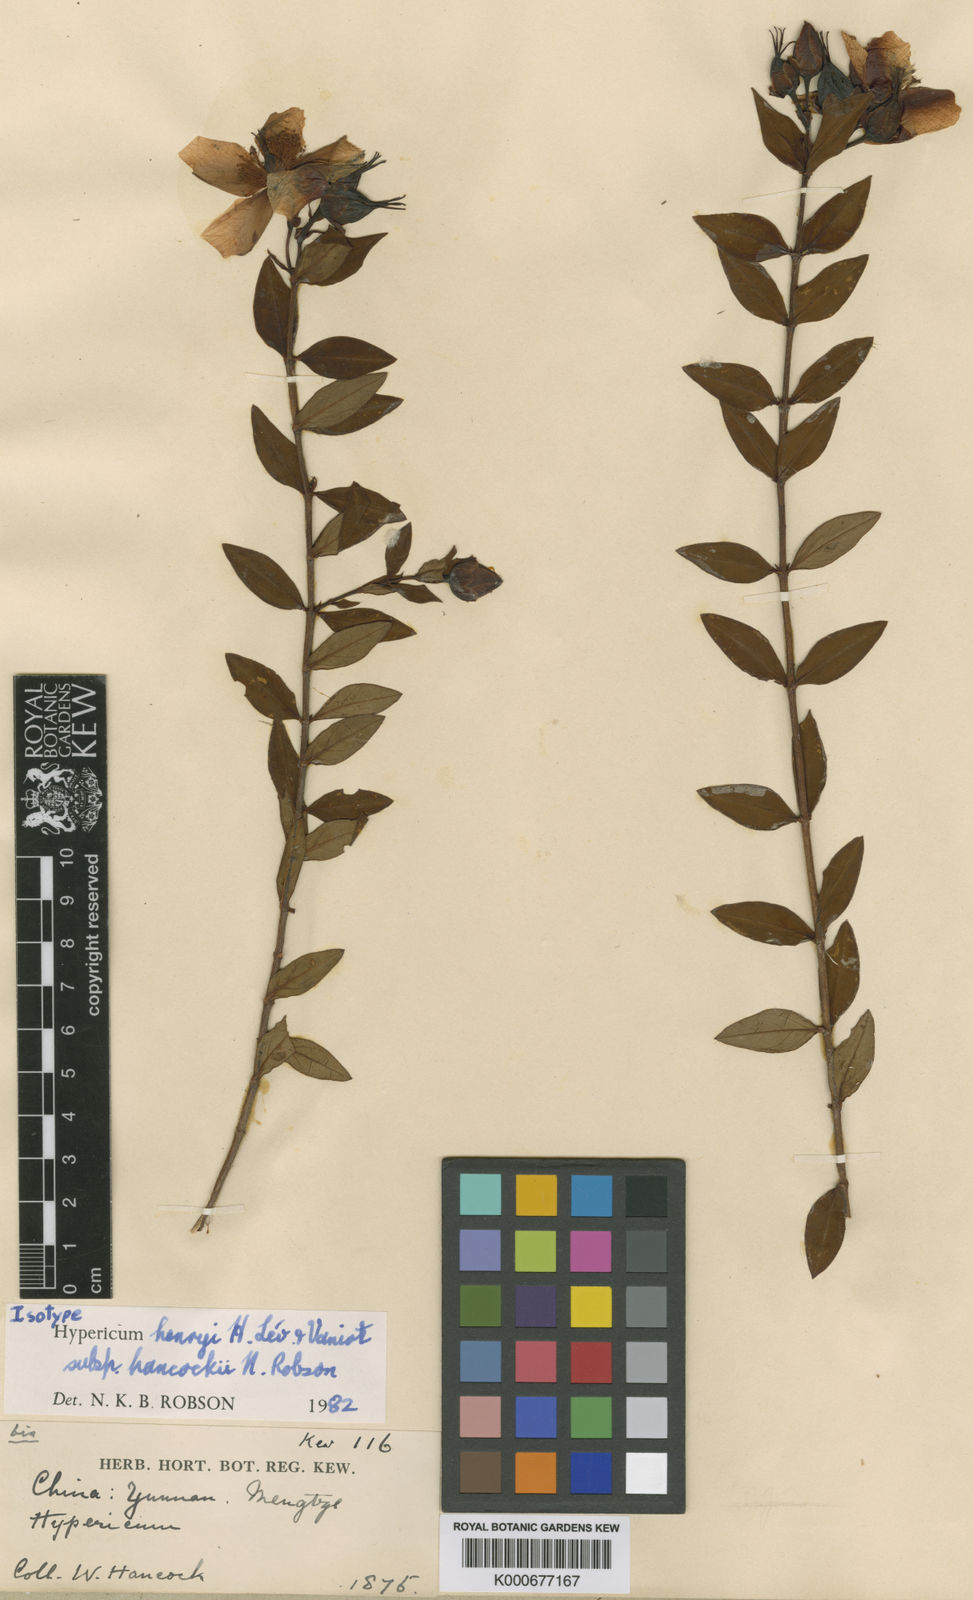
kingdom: Plantae
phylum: Tracheophyta
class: Magnoliopsida
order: Malpighiales
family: Hypericaceae
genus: Hypericum
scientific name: Hypericum
